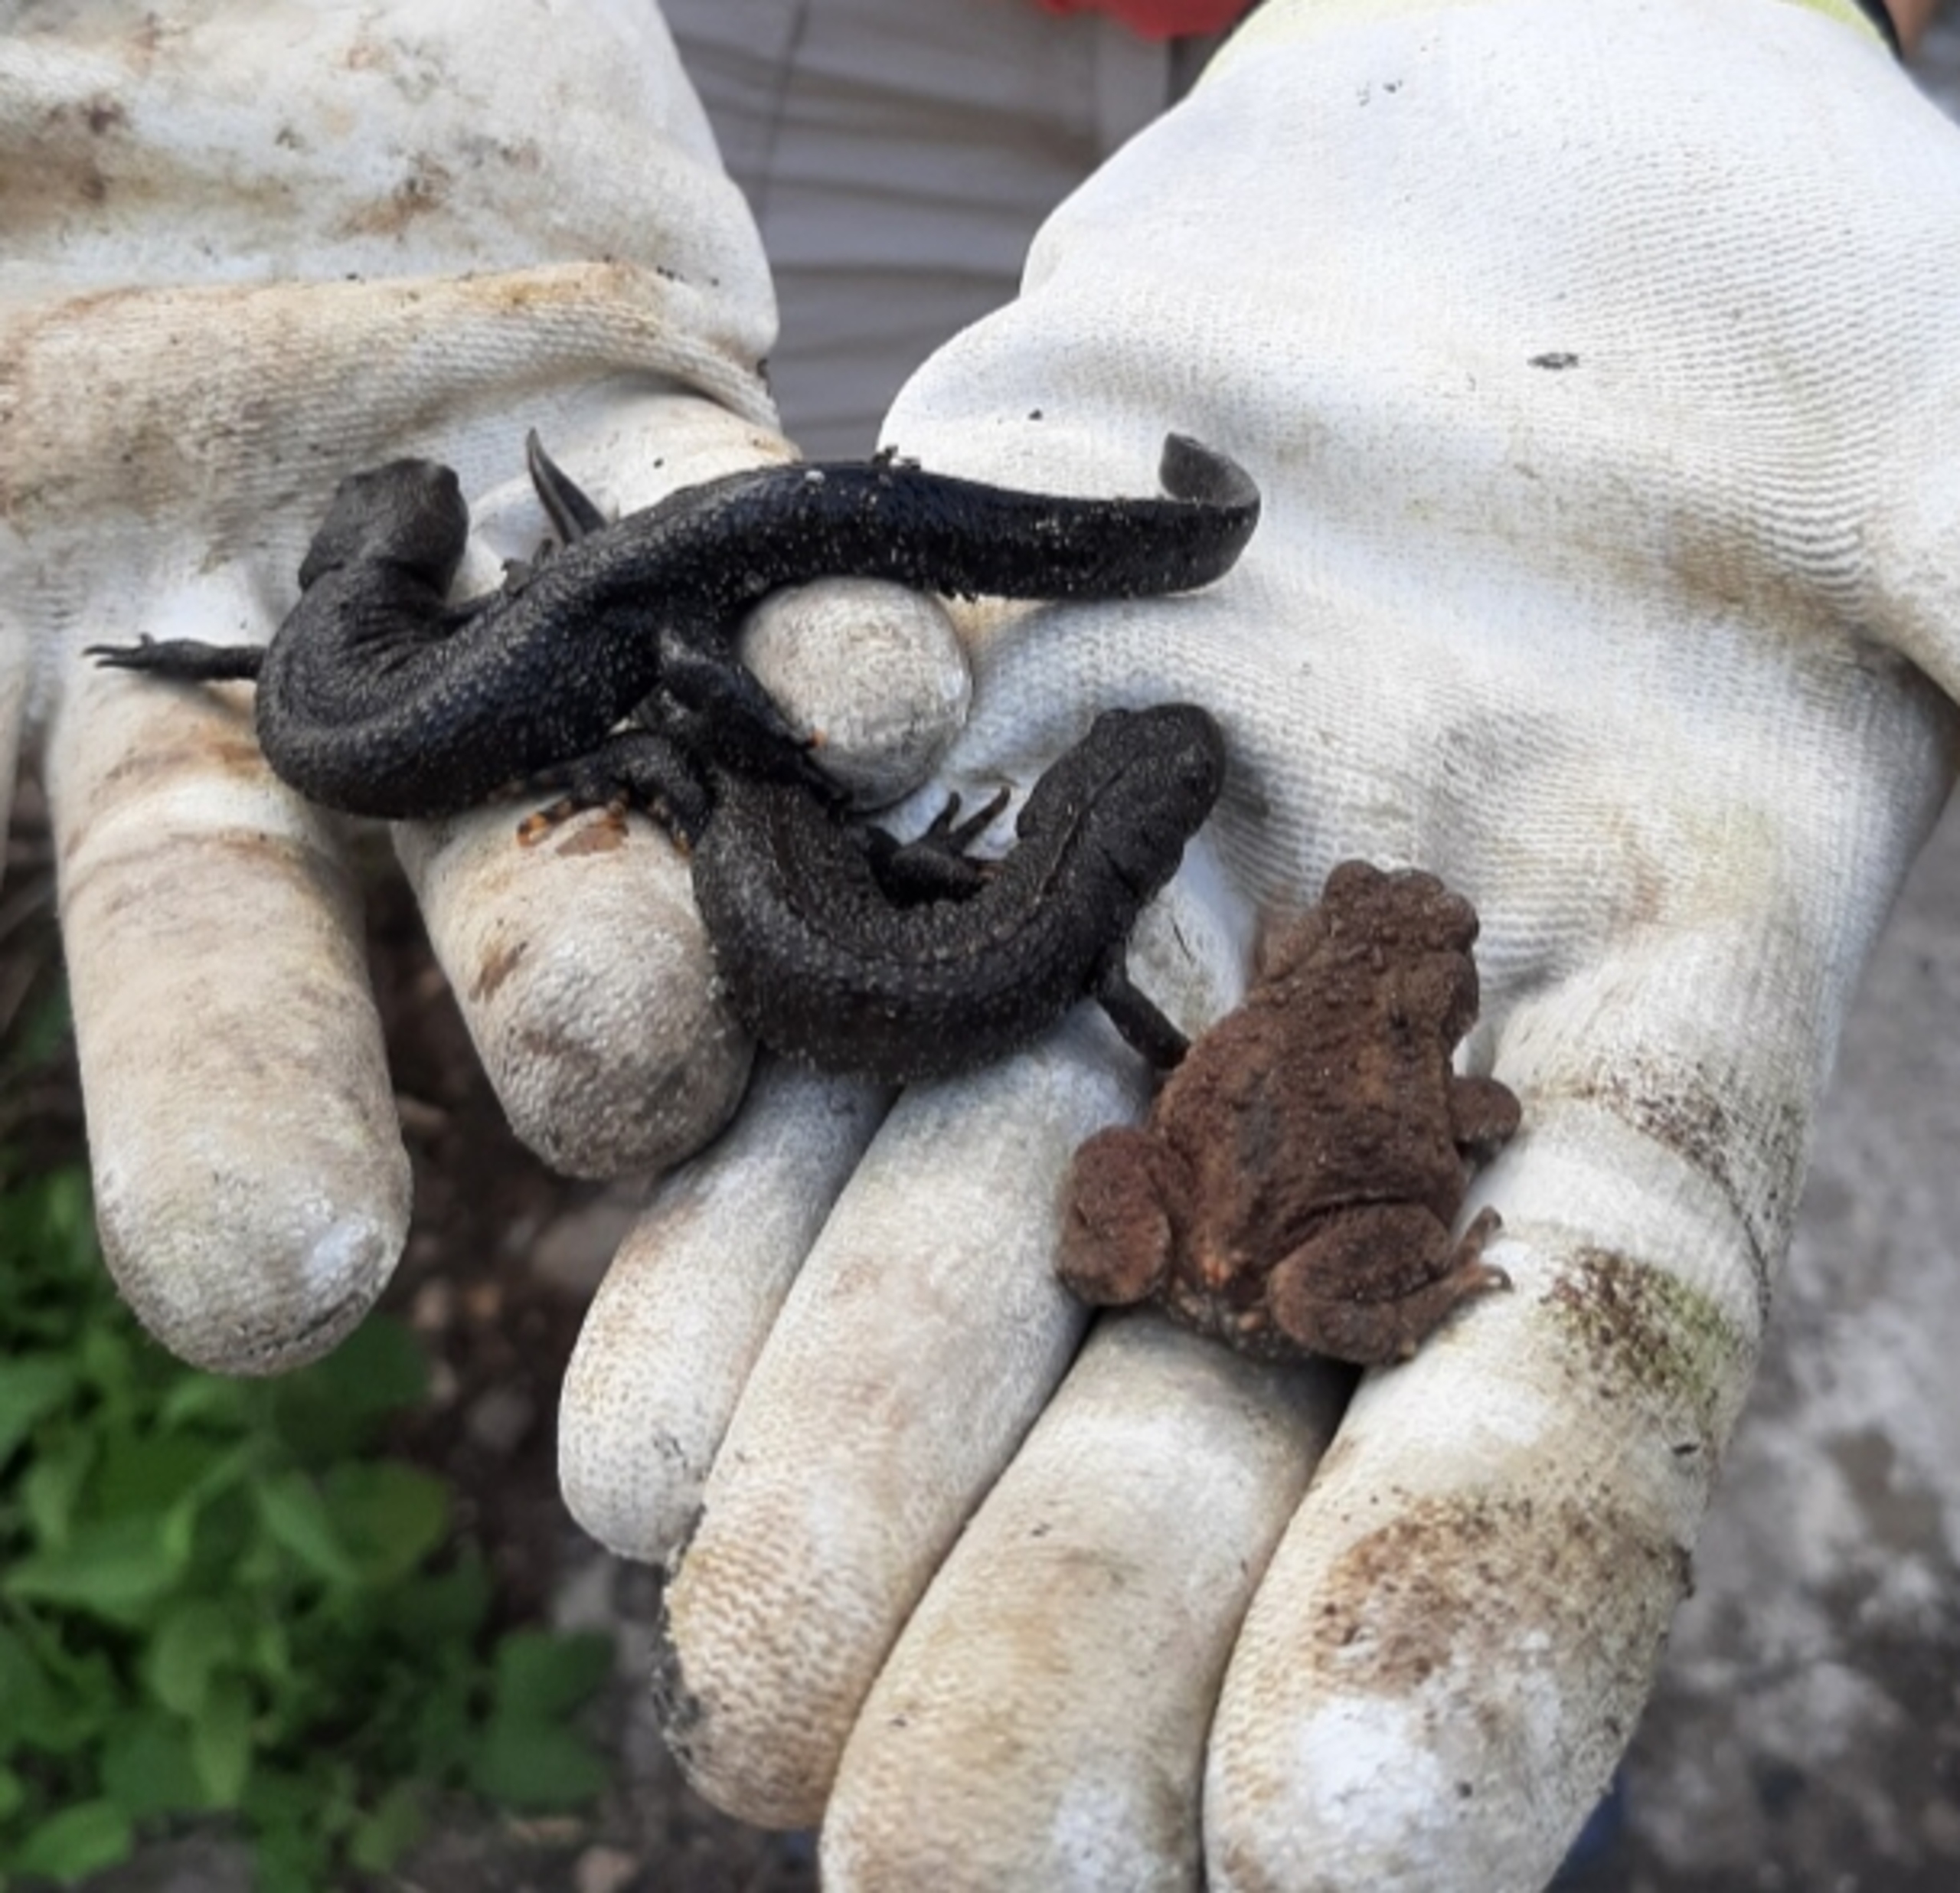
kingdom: Animalia
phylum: Chordata
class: Amphibia
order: Caudata
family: Salamandridae
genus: Triturus
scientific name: Triturus cristatus
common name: Stor vandsalamander
